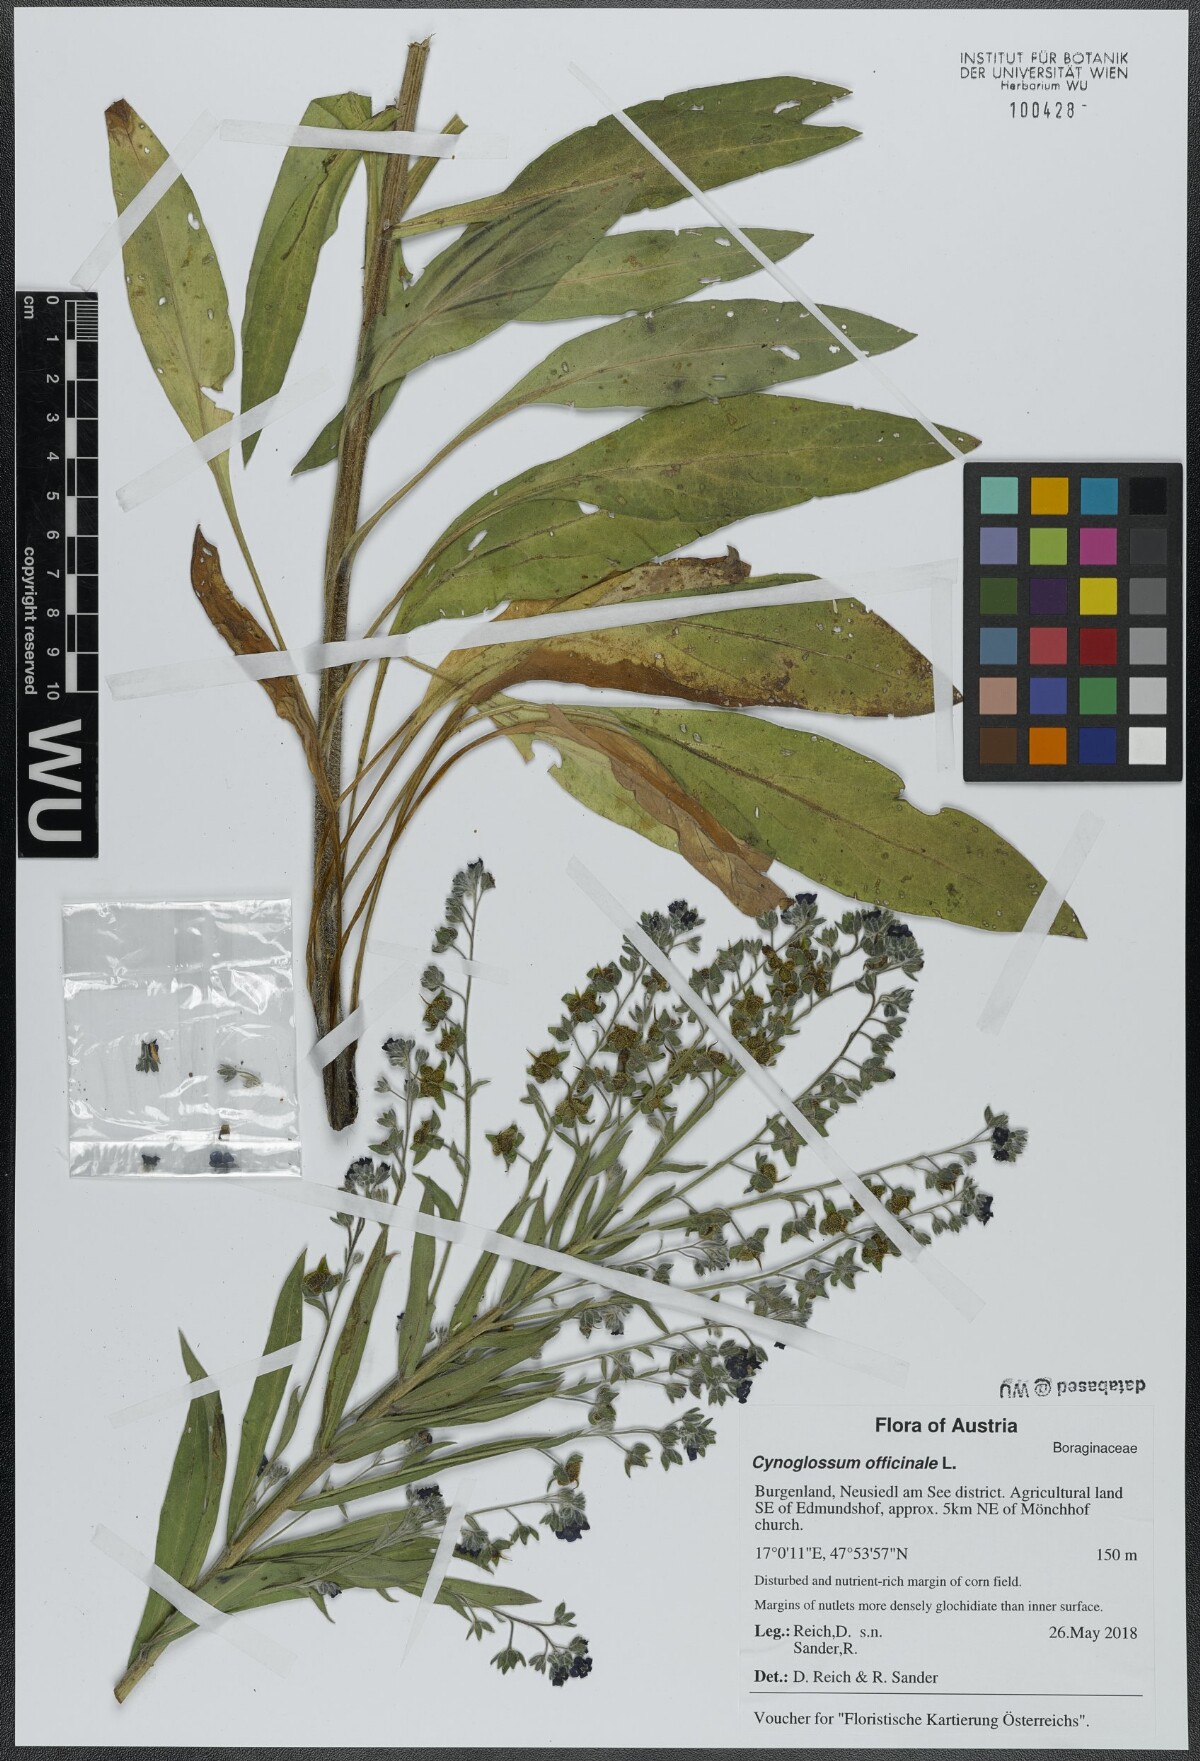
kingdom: Plantae
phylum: Tracheophyta
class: Magnoliopsida
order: Boraginales
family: Boraginaceae
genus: Cynoglossum
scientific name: Cynoglossum officinale
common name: Hound's-tongue
